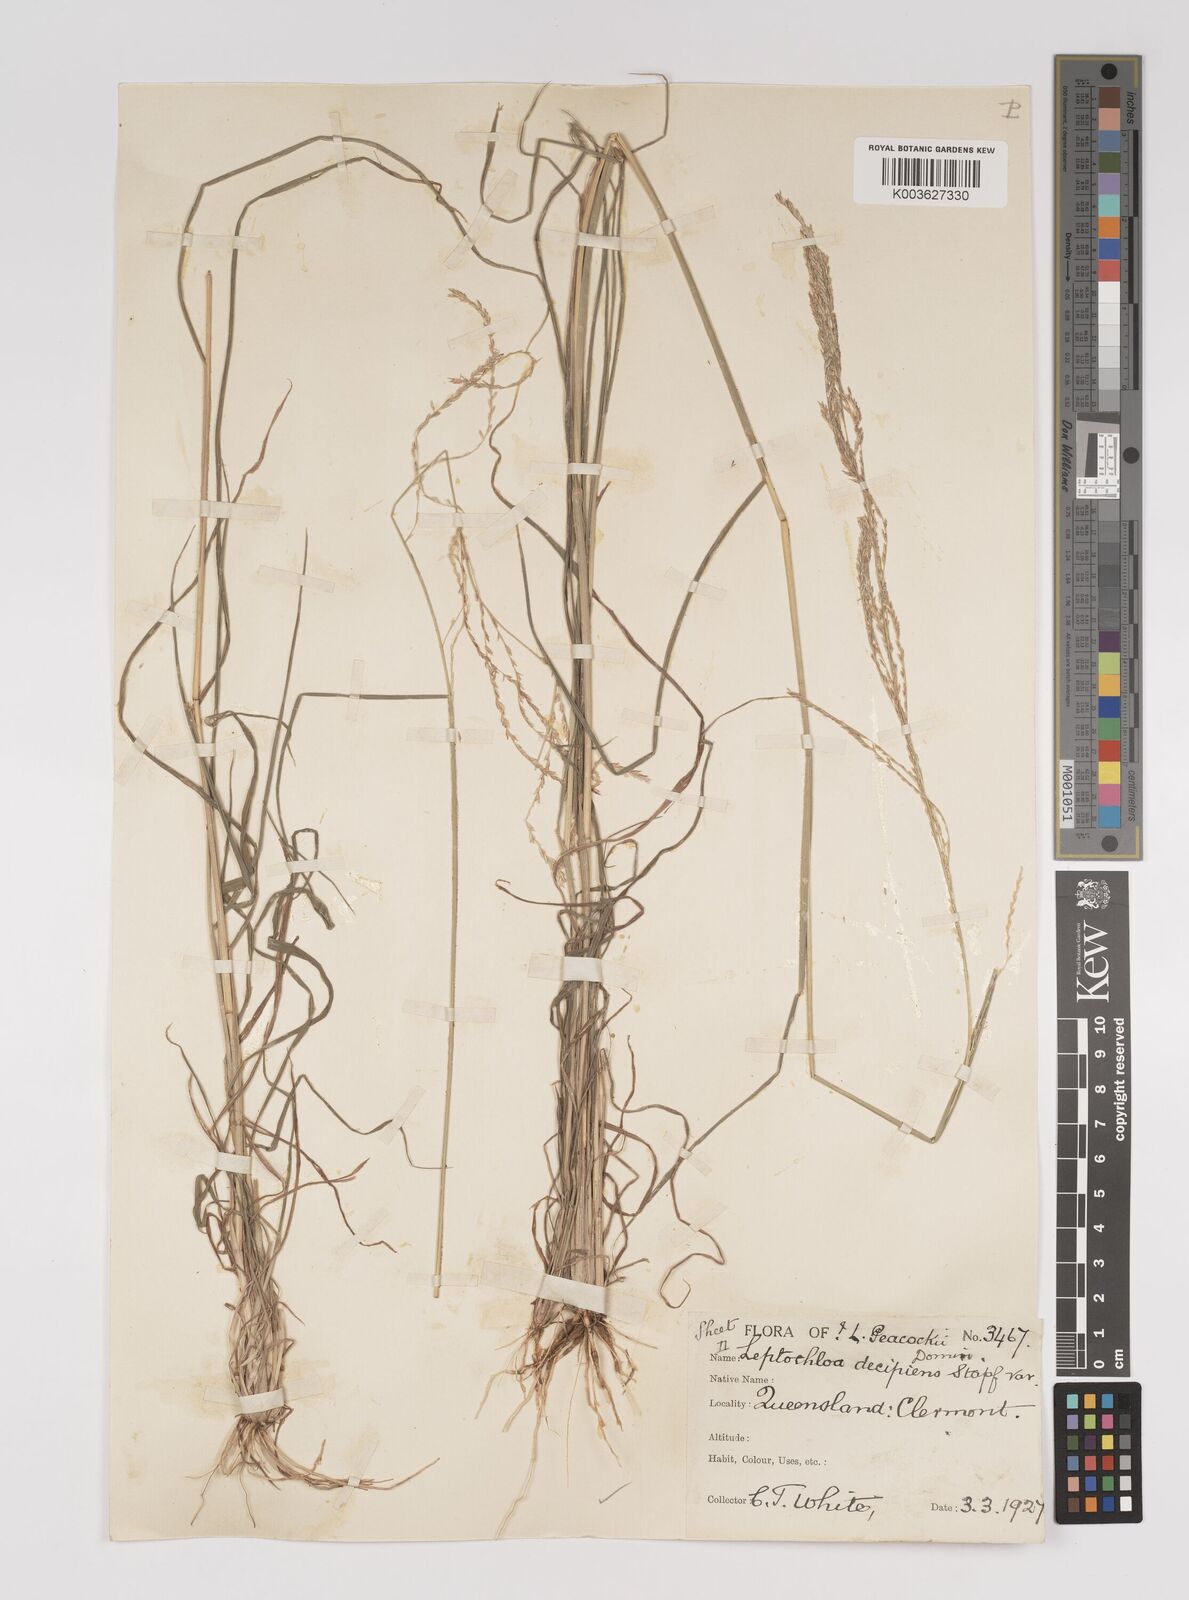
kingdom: Plantae
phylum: Tracheophyta
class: Liliopsida
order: Poales
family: Poaceae
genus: Leptochloa
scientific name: Leptochloa decipiens
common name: Australian sprangletop
